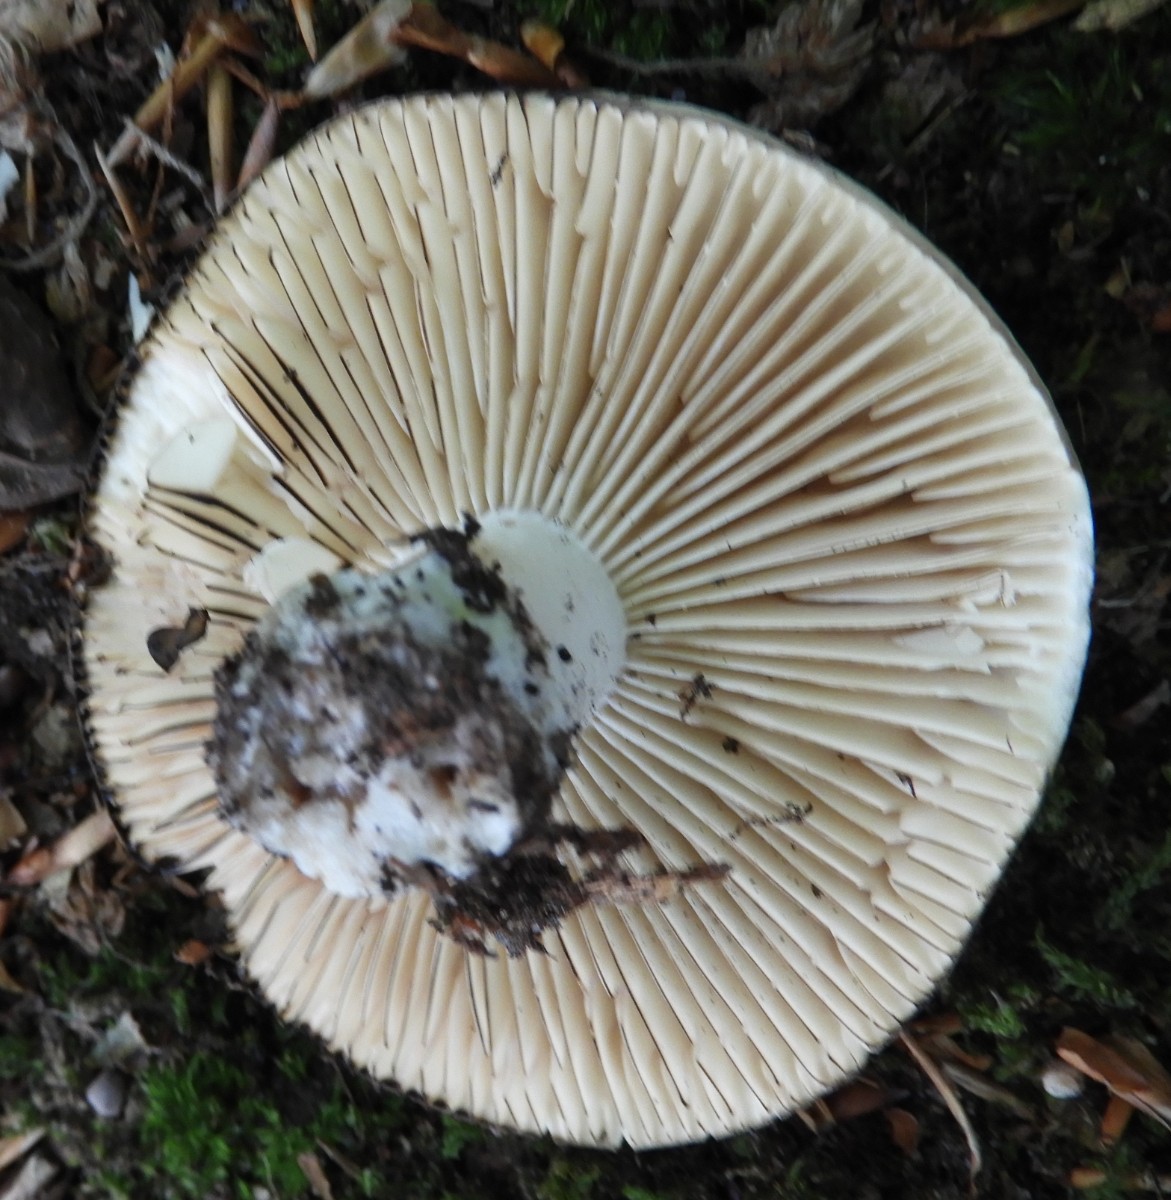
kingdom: Fungi
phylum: Basidiomycota
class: Agaricomycetes
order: Russulales
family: Russulaceae
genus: Russula
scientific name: Russula adusta
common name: sværtende skørhat
